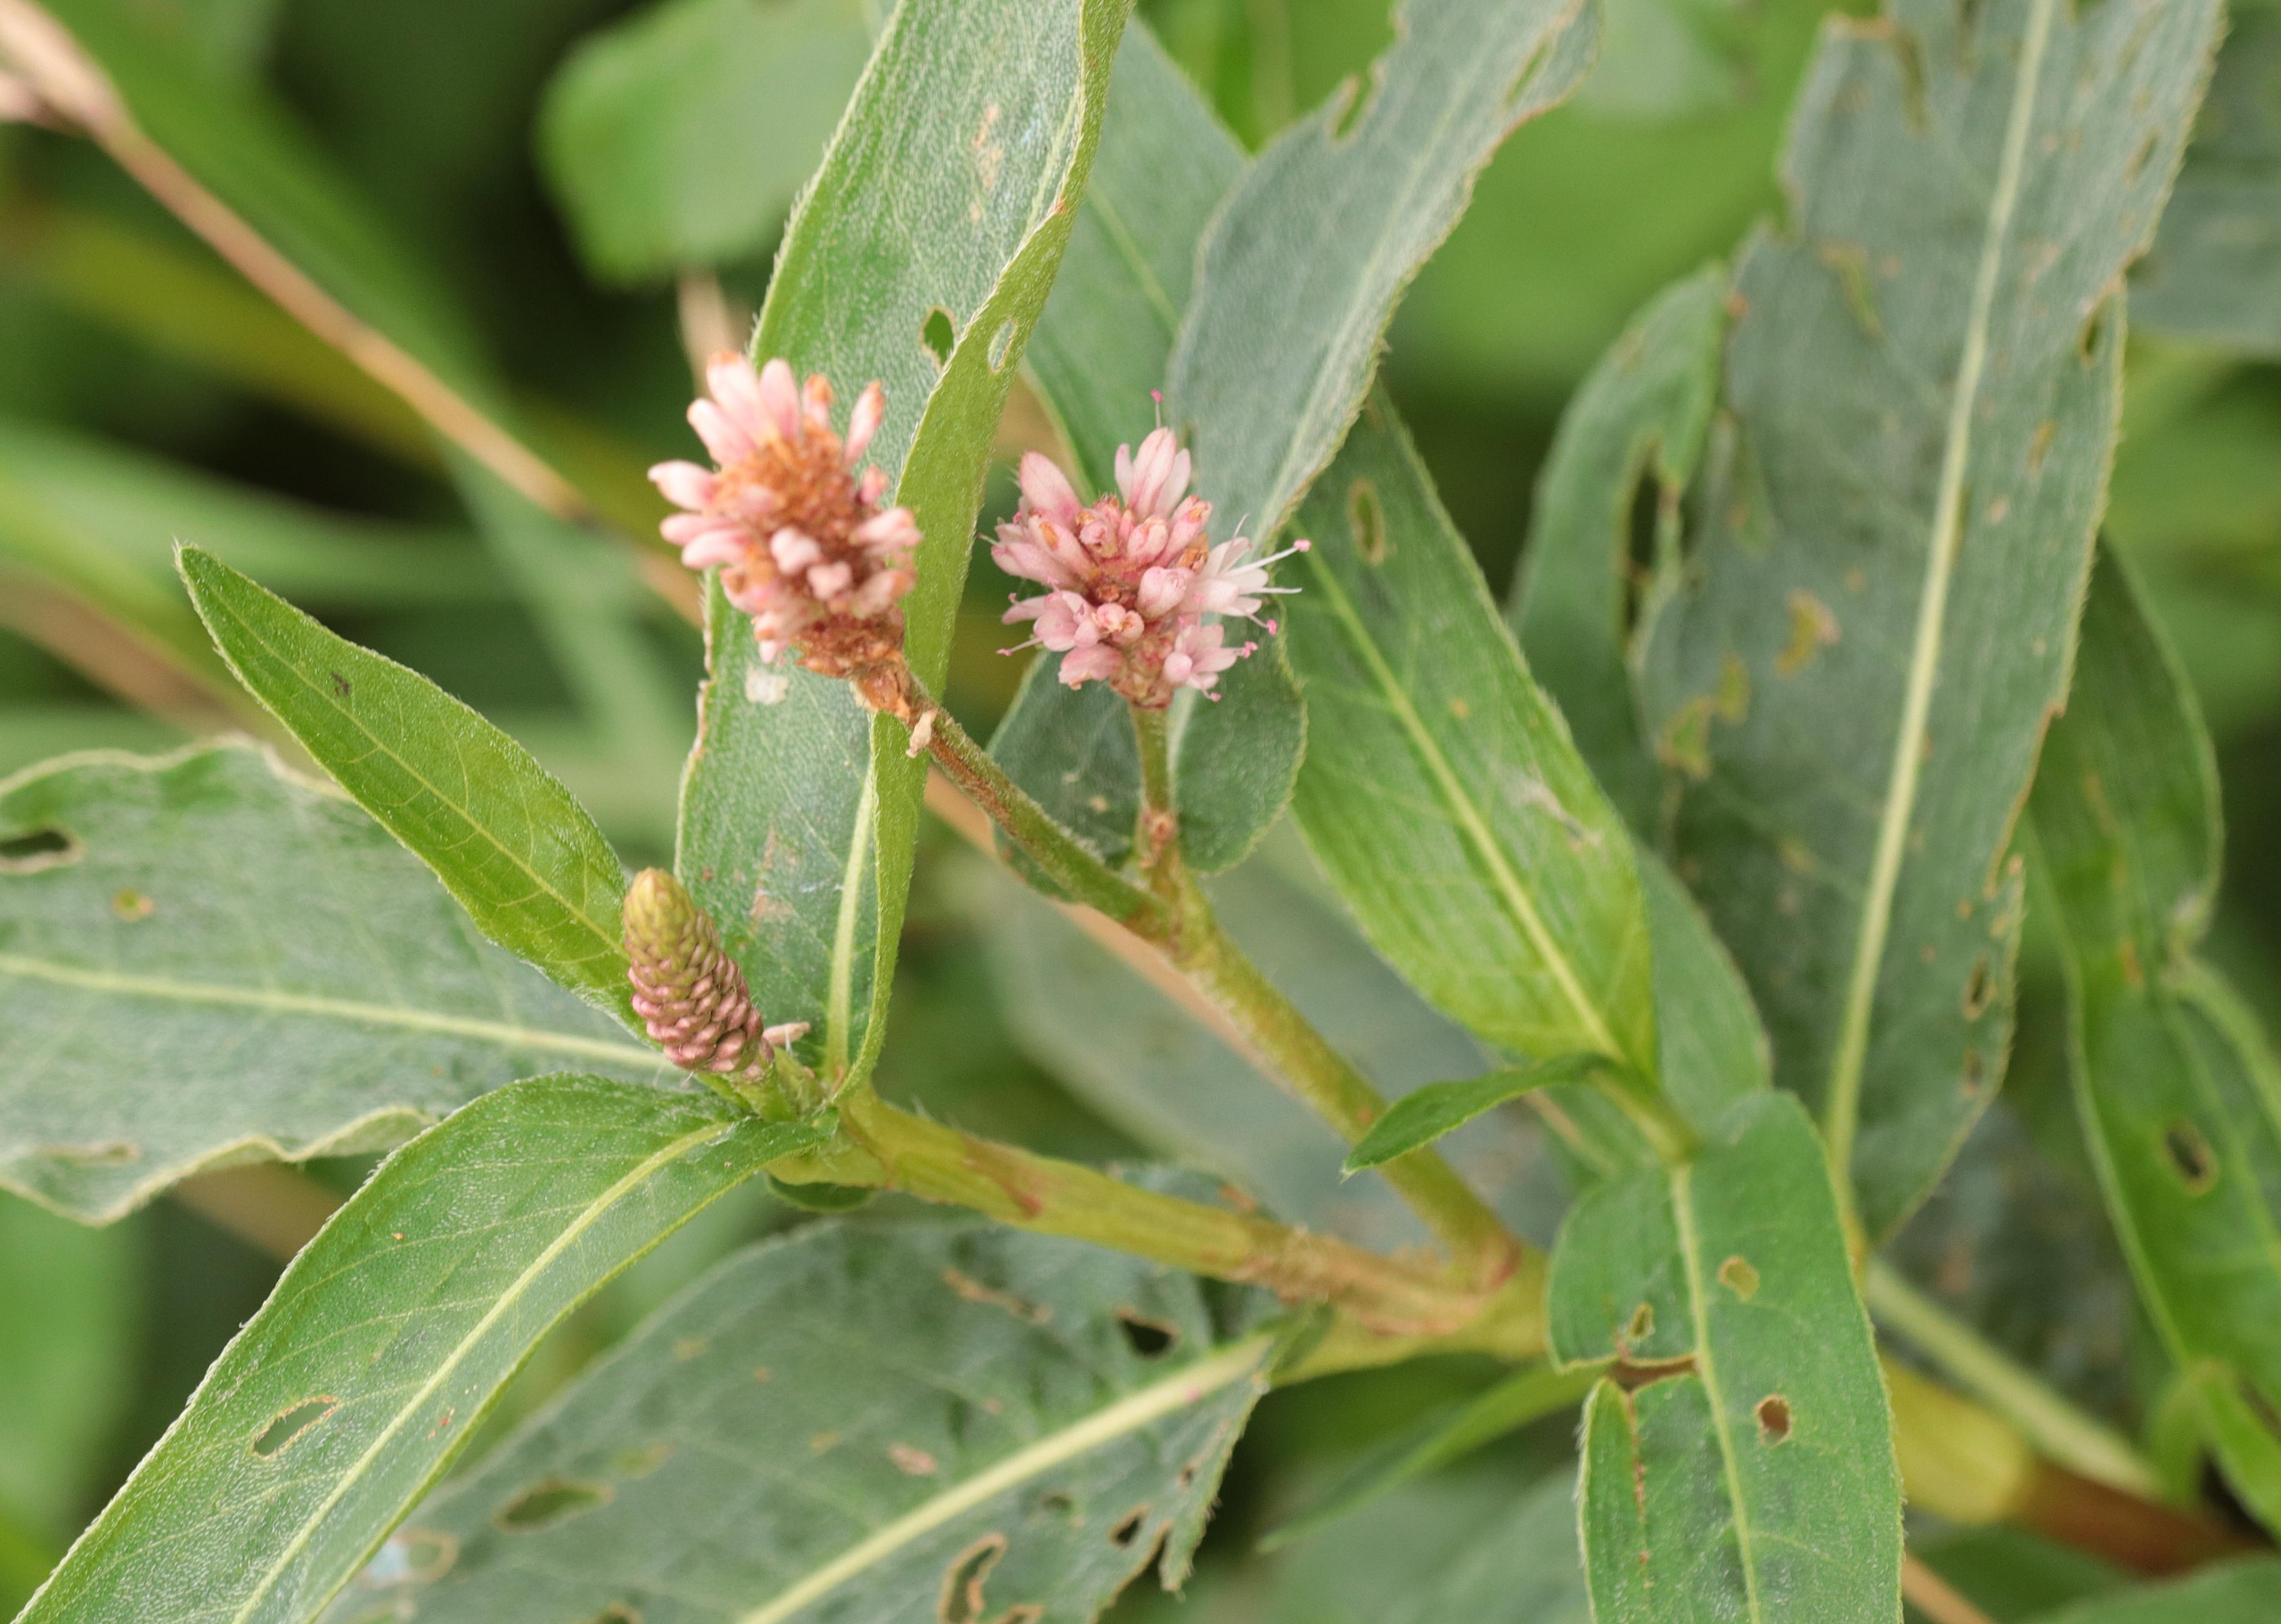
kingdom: Plantae
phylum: Tracheophyta
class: Magnoliopsida
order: Caryophyllales
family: Polygonaceae
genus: Persicaria
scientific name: Persicaria amphibia
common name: Vand-pileurt
